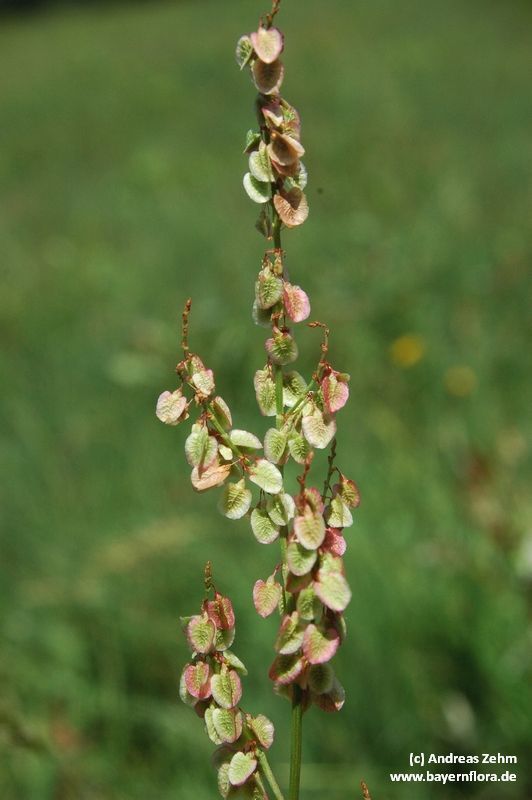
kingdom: Plantae
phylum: Tracheophyta
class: Magnoliopsida
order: Caryophyllales
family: Polygonaceae
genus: Rumex
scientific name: Rumex acetosa
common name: Garden sorrel
